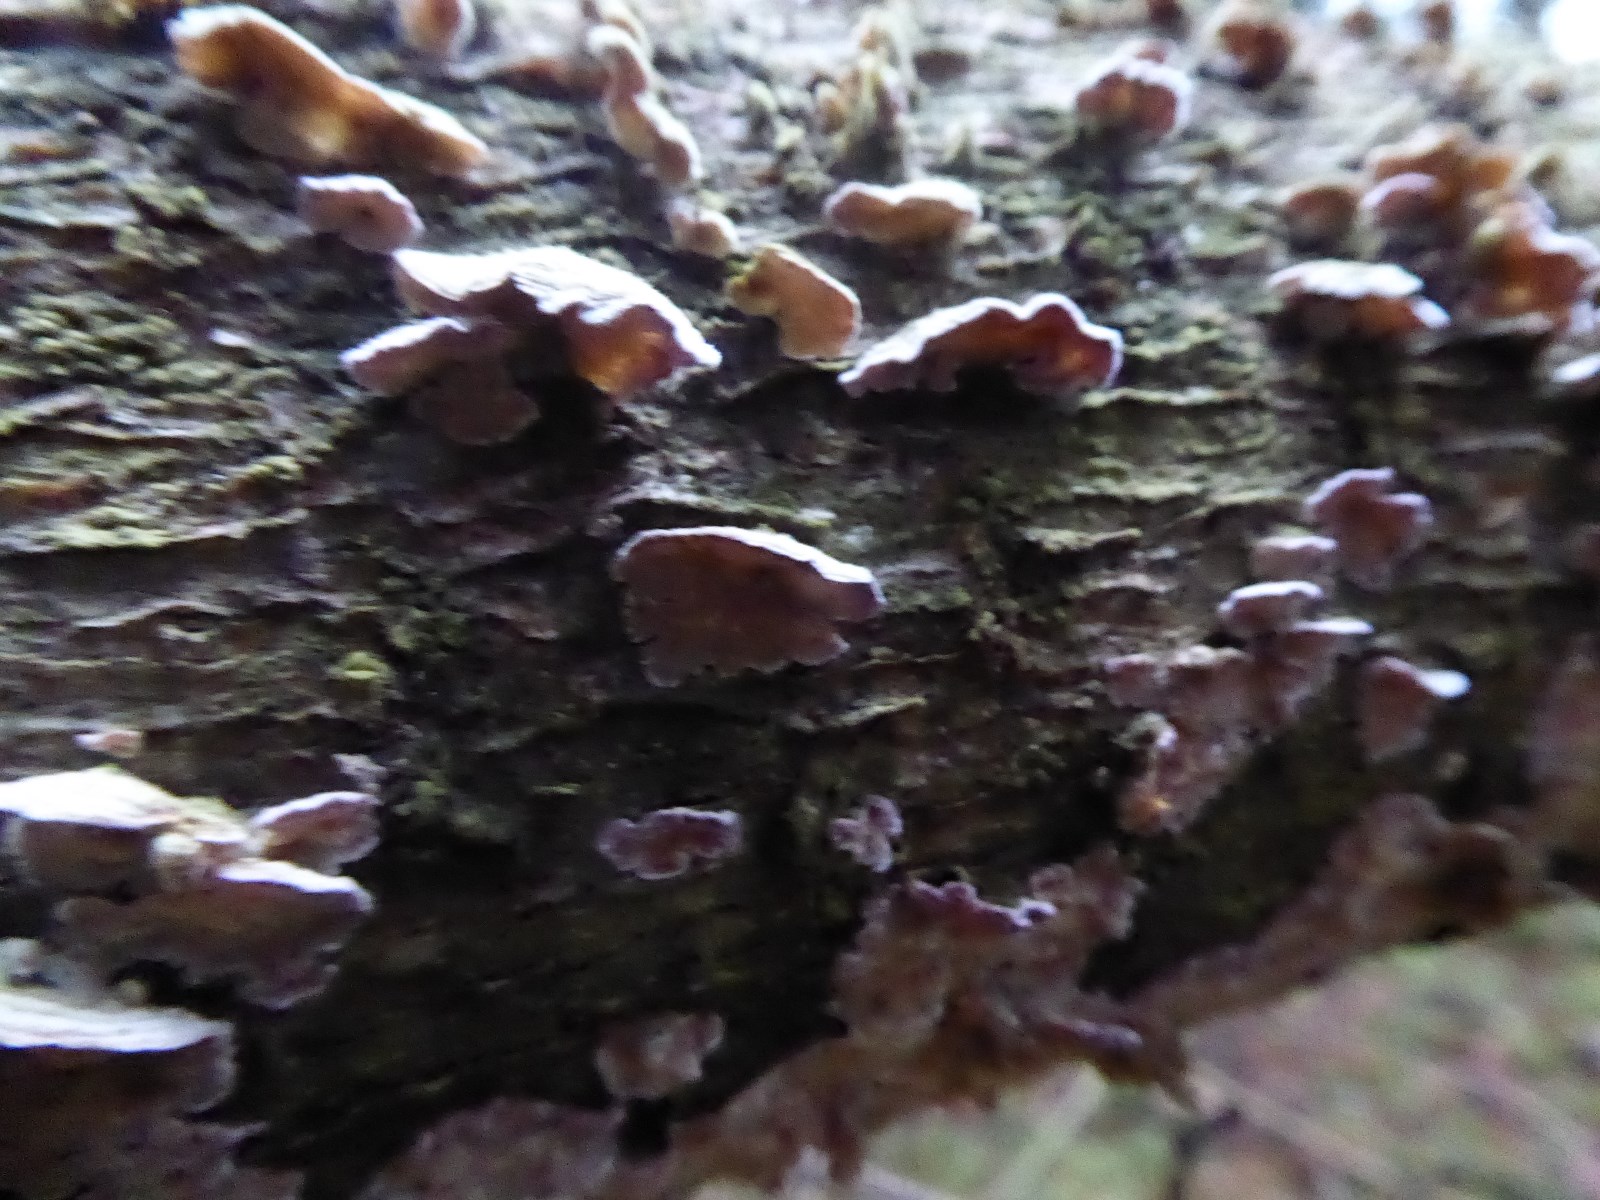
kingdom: Fungi
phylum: Basidiomycota
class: Agaricomycetes
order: Hymenochaetales
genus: Trichaptum
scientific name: Trichaptum abietinum
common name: almindelig violporesvamp
